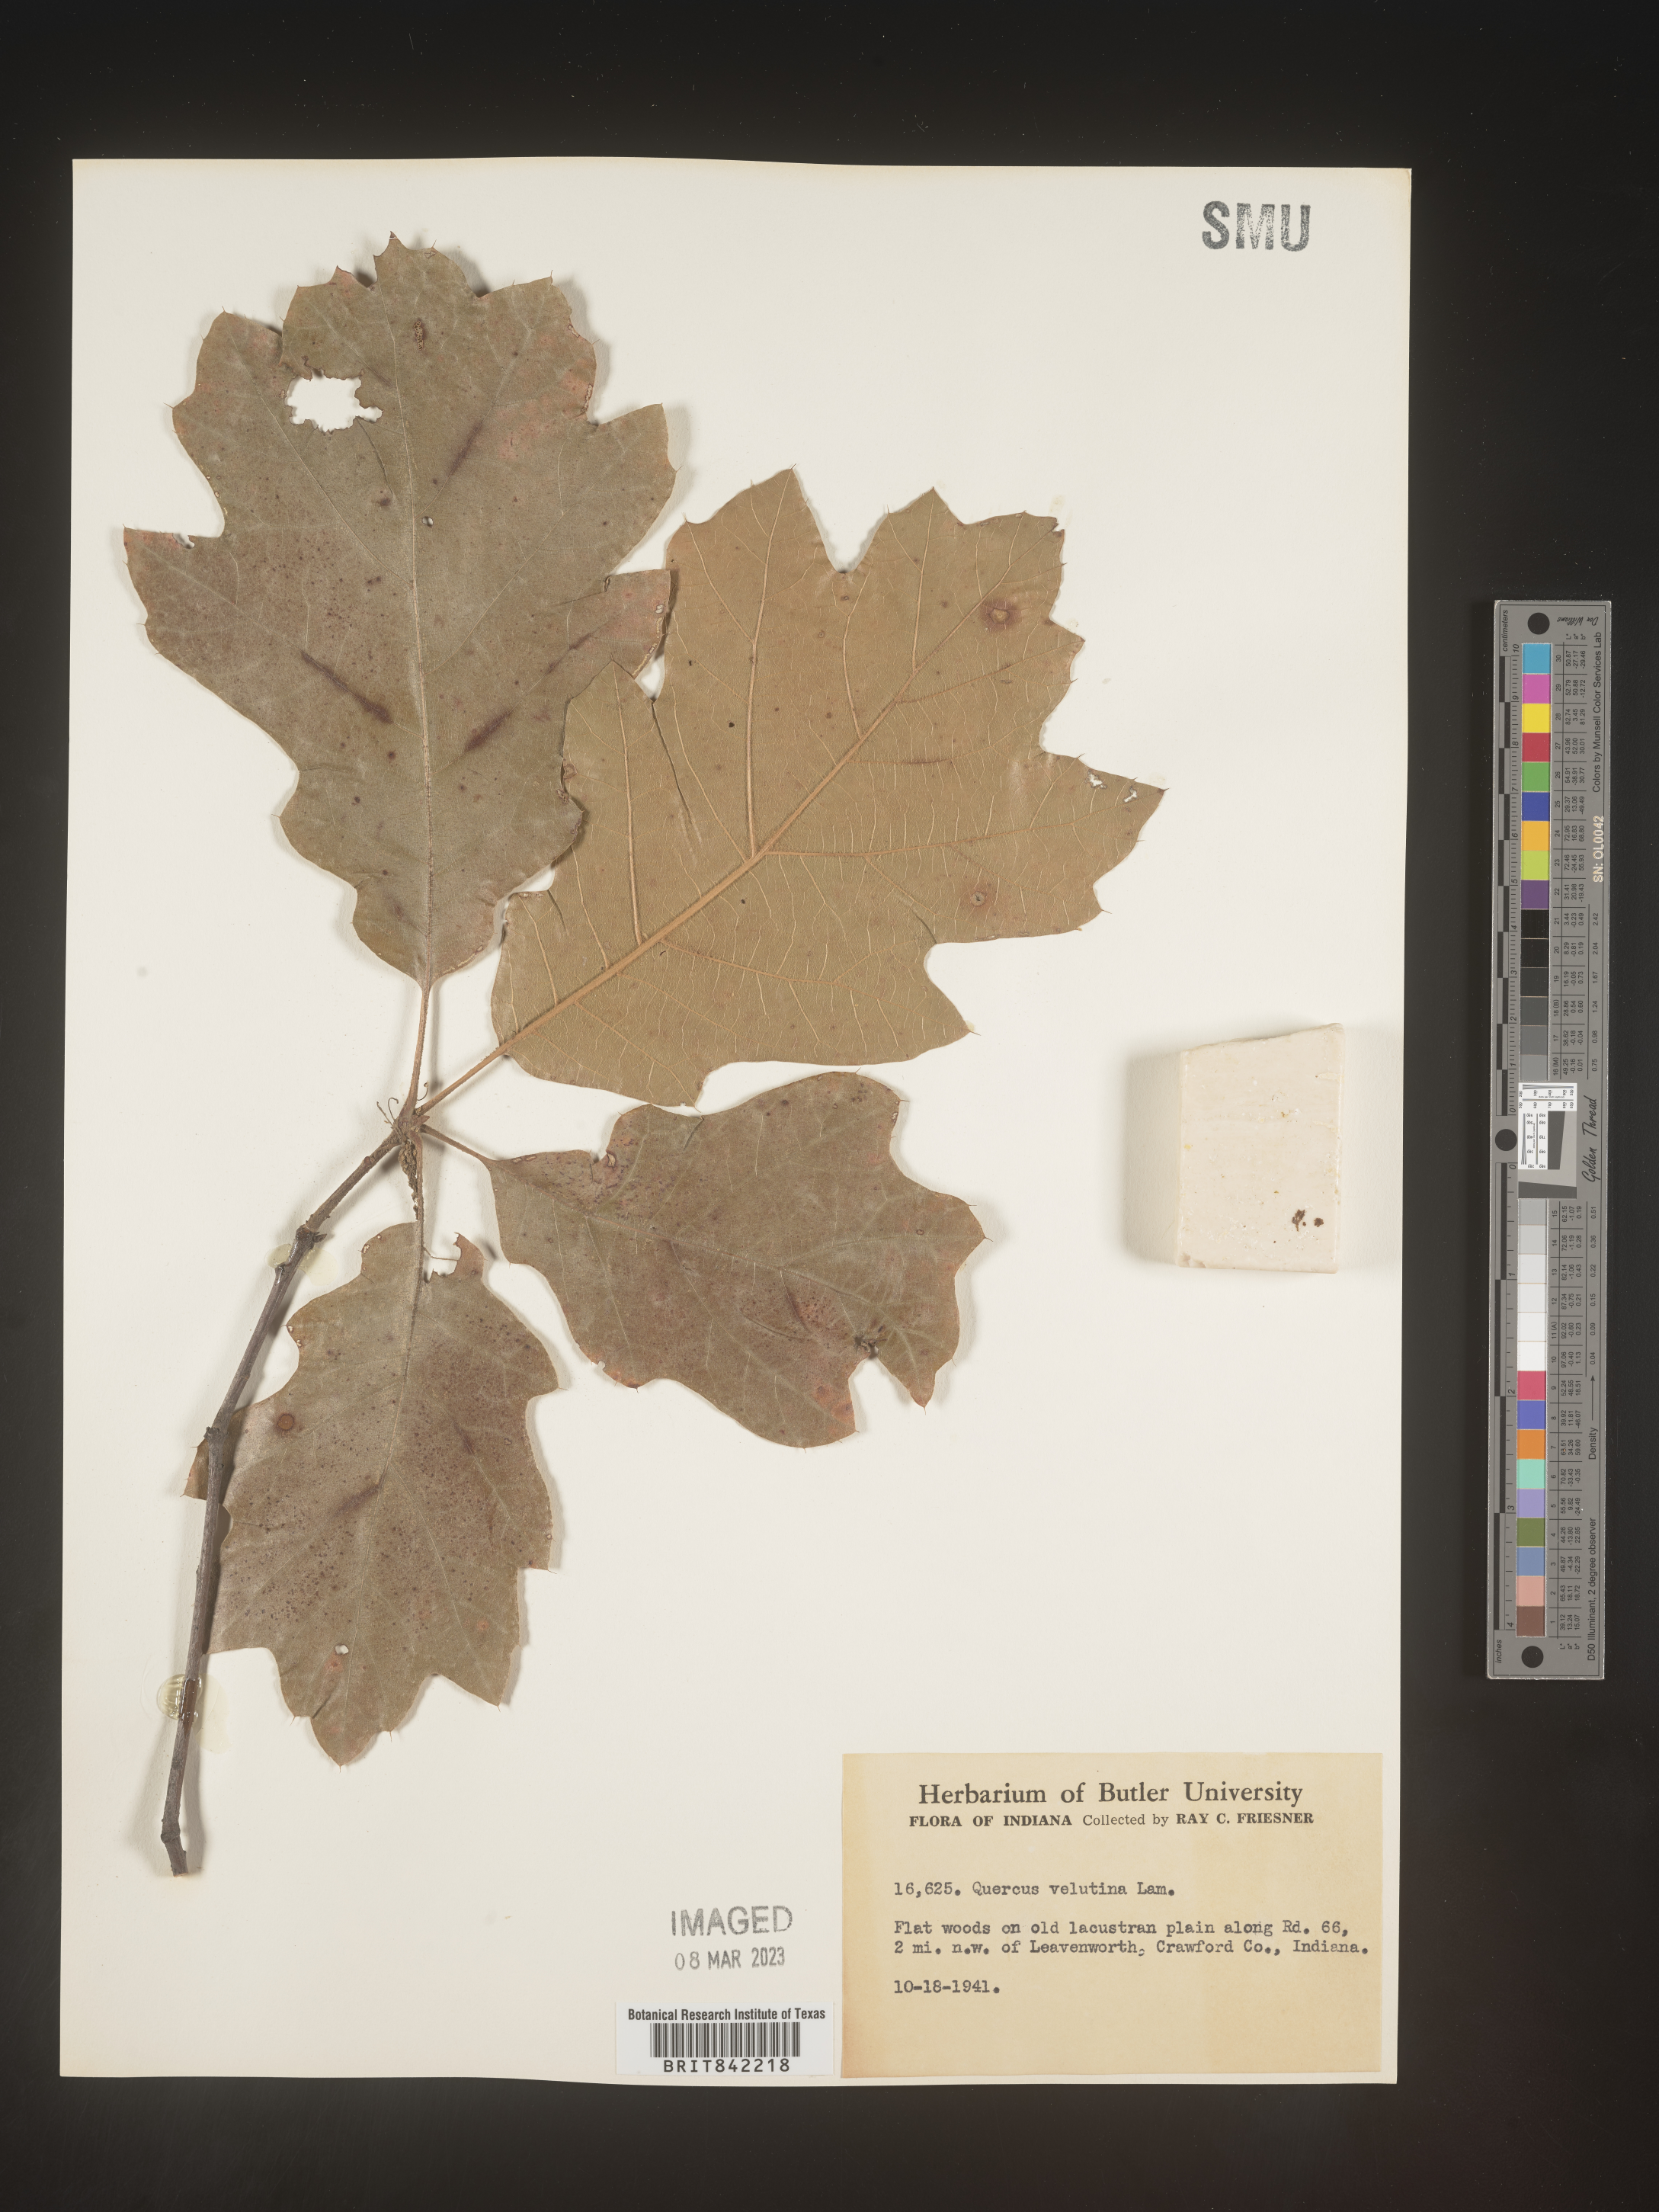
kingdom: Plantae
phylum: Tracheophyta
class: Magnoliopsida
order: Fagales
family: Fagaceae
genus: Quercus
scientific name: Quercus velutina
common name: Black oak
